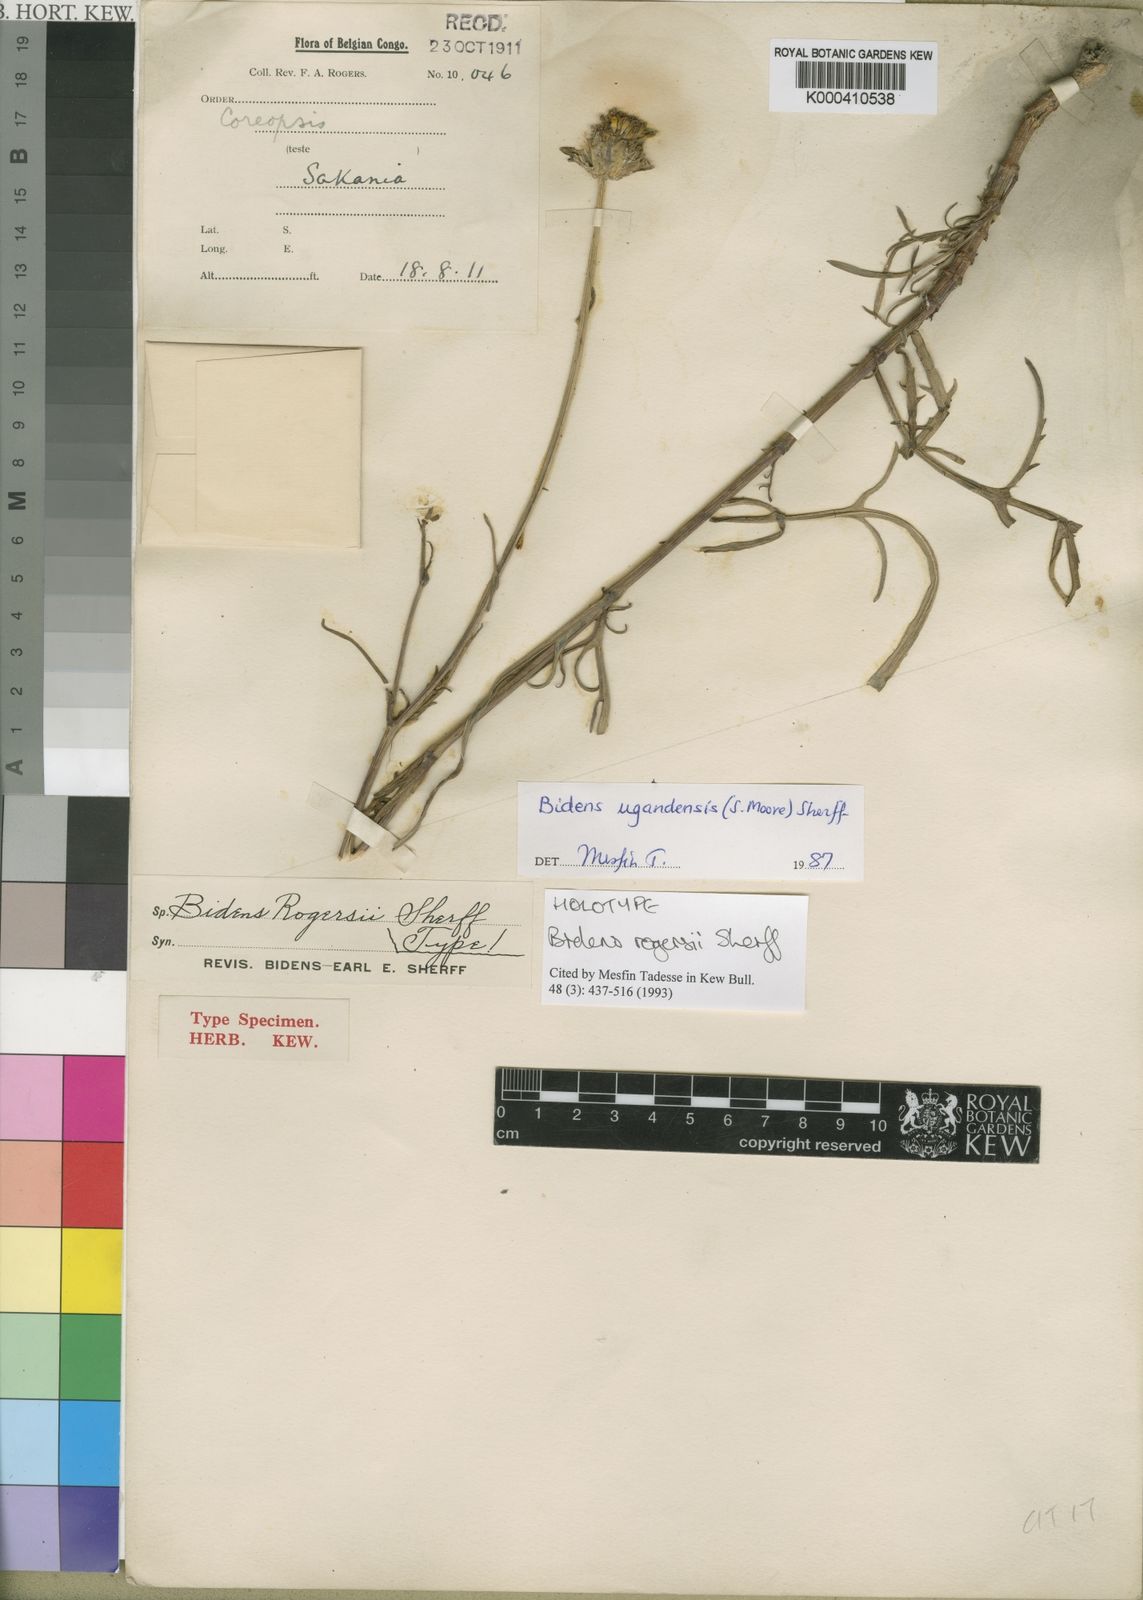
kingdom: Plantae
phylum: Tracheophyta
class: Magnoliopsida
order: Asterales
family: Asteraceae
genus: Bidens
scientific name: Bidens ugandensis
